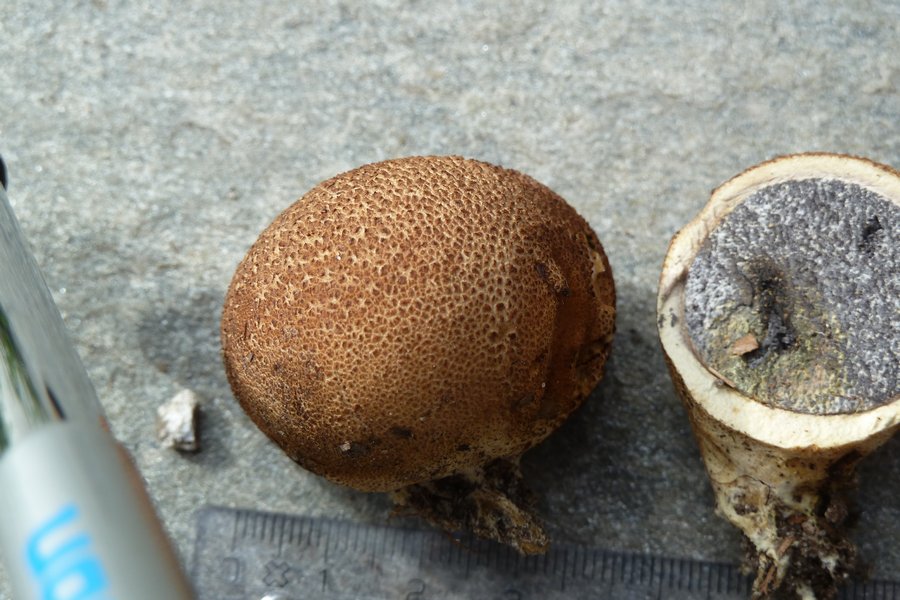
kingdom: Fungi
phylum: Basidiomycota
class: Agaricomycetes
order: Boletales
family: Sclerodermataceae
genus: Scleroderma
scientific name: Scleroderma citrinum
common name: almindelig bruskbold
